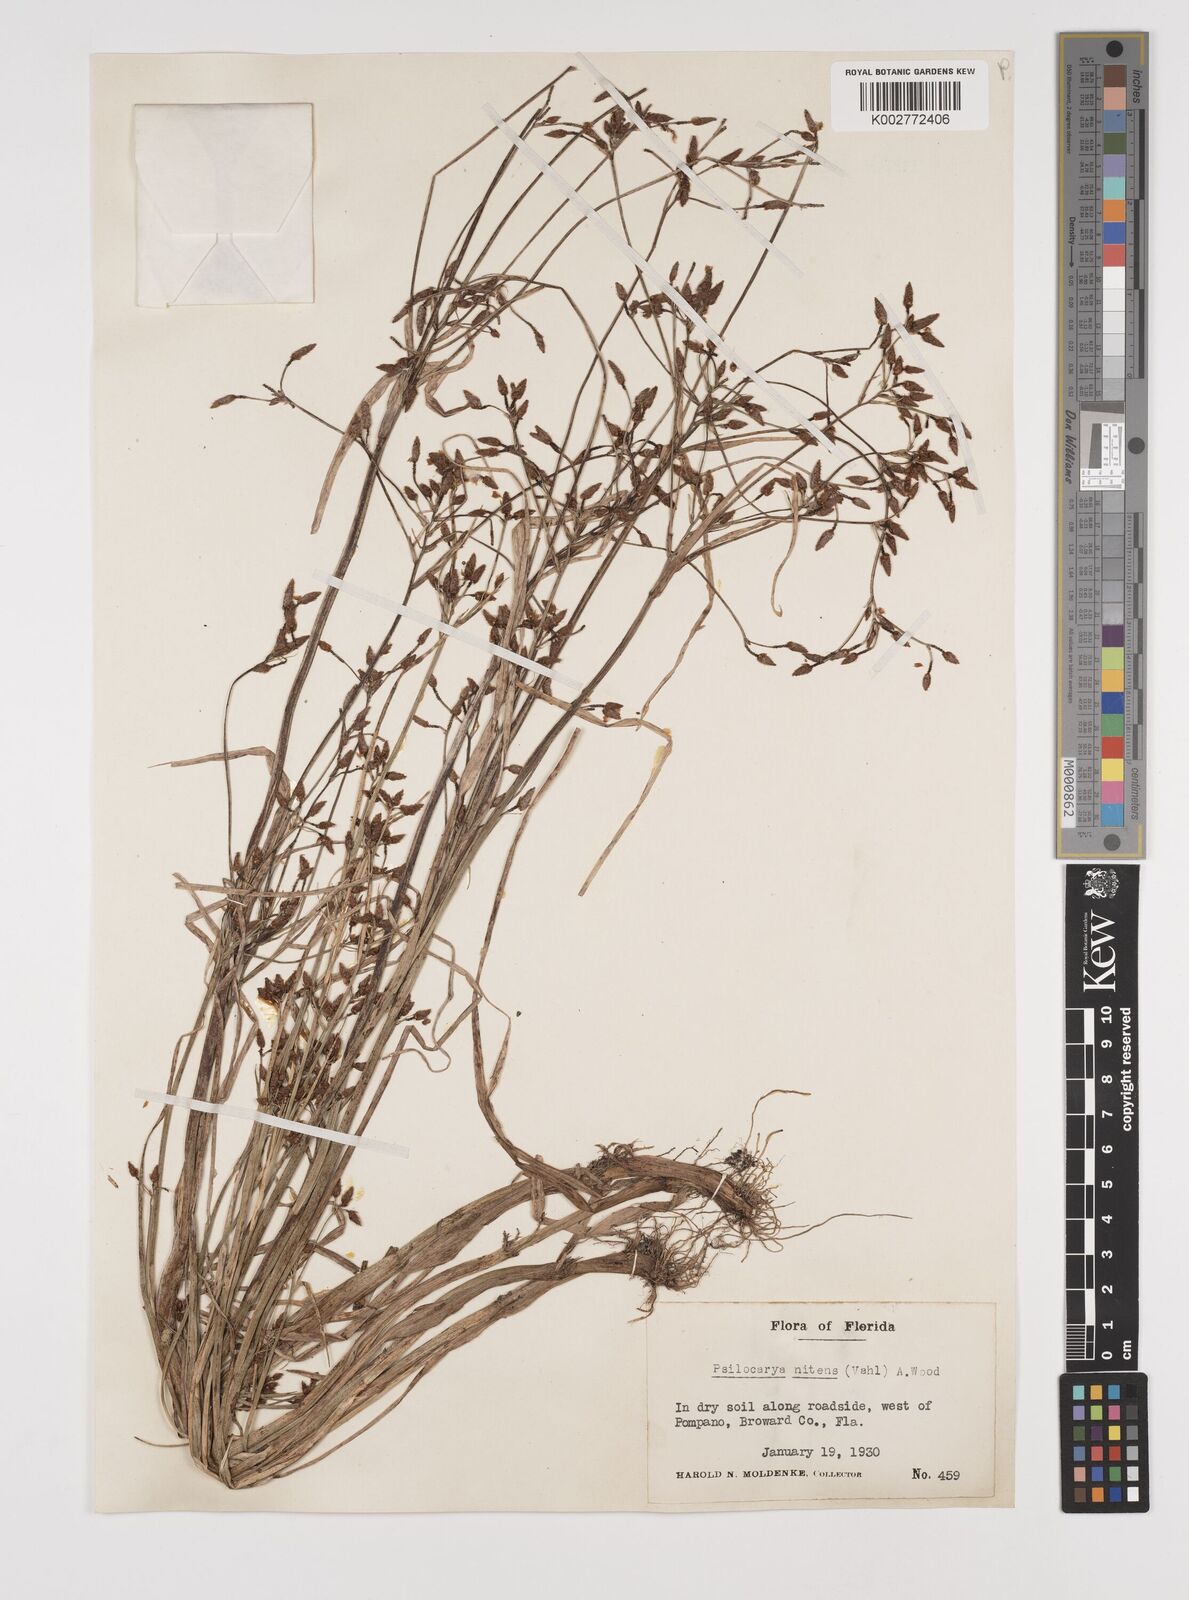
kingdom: Plantae
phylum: Tracheophyta
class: Liliopsida
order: Poales
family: Cyperaceae
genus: Rhynchospora
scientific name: Rhynchospora scirpoides
